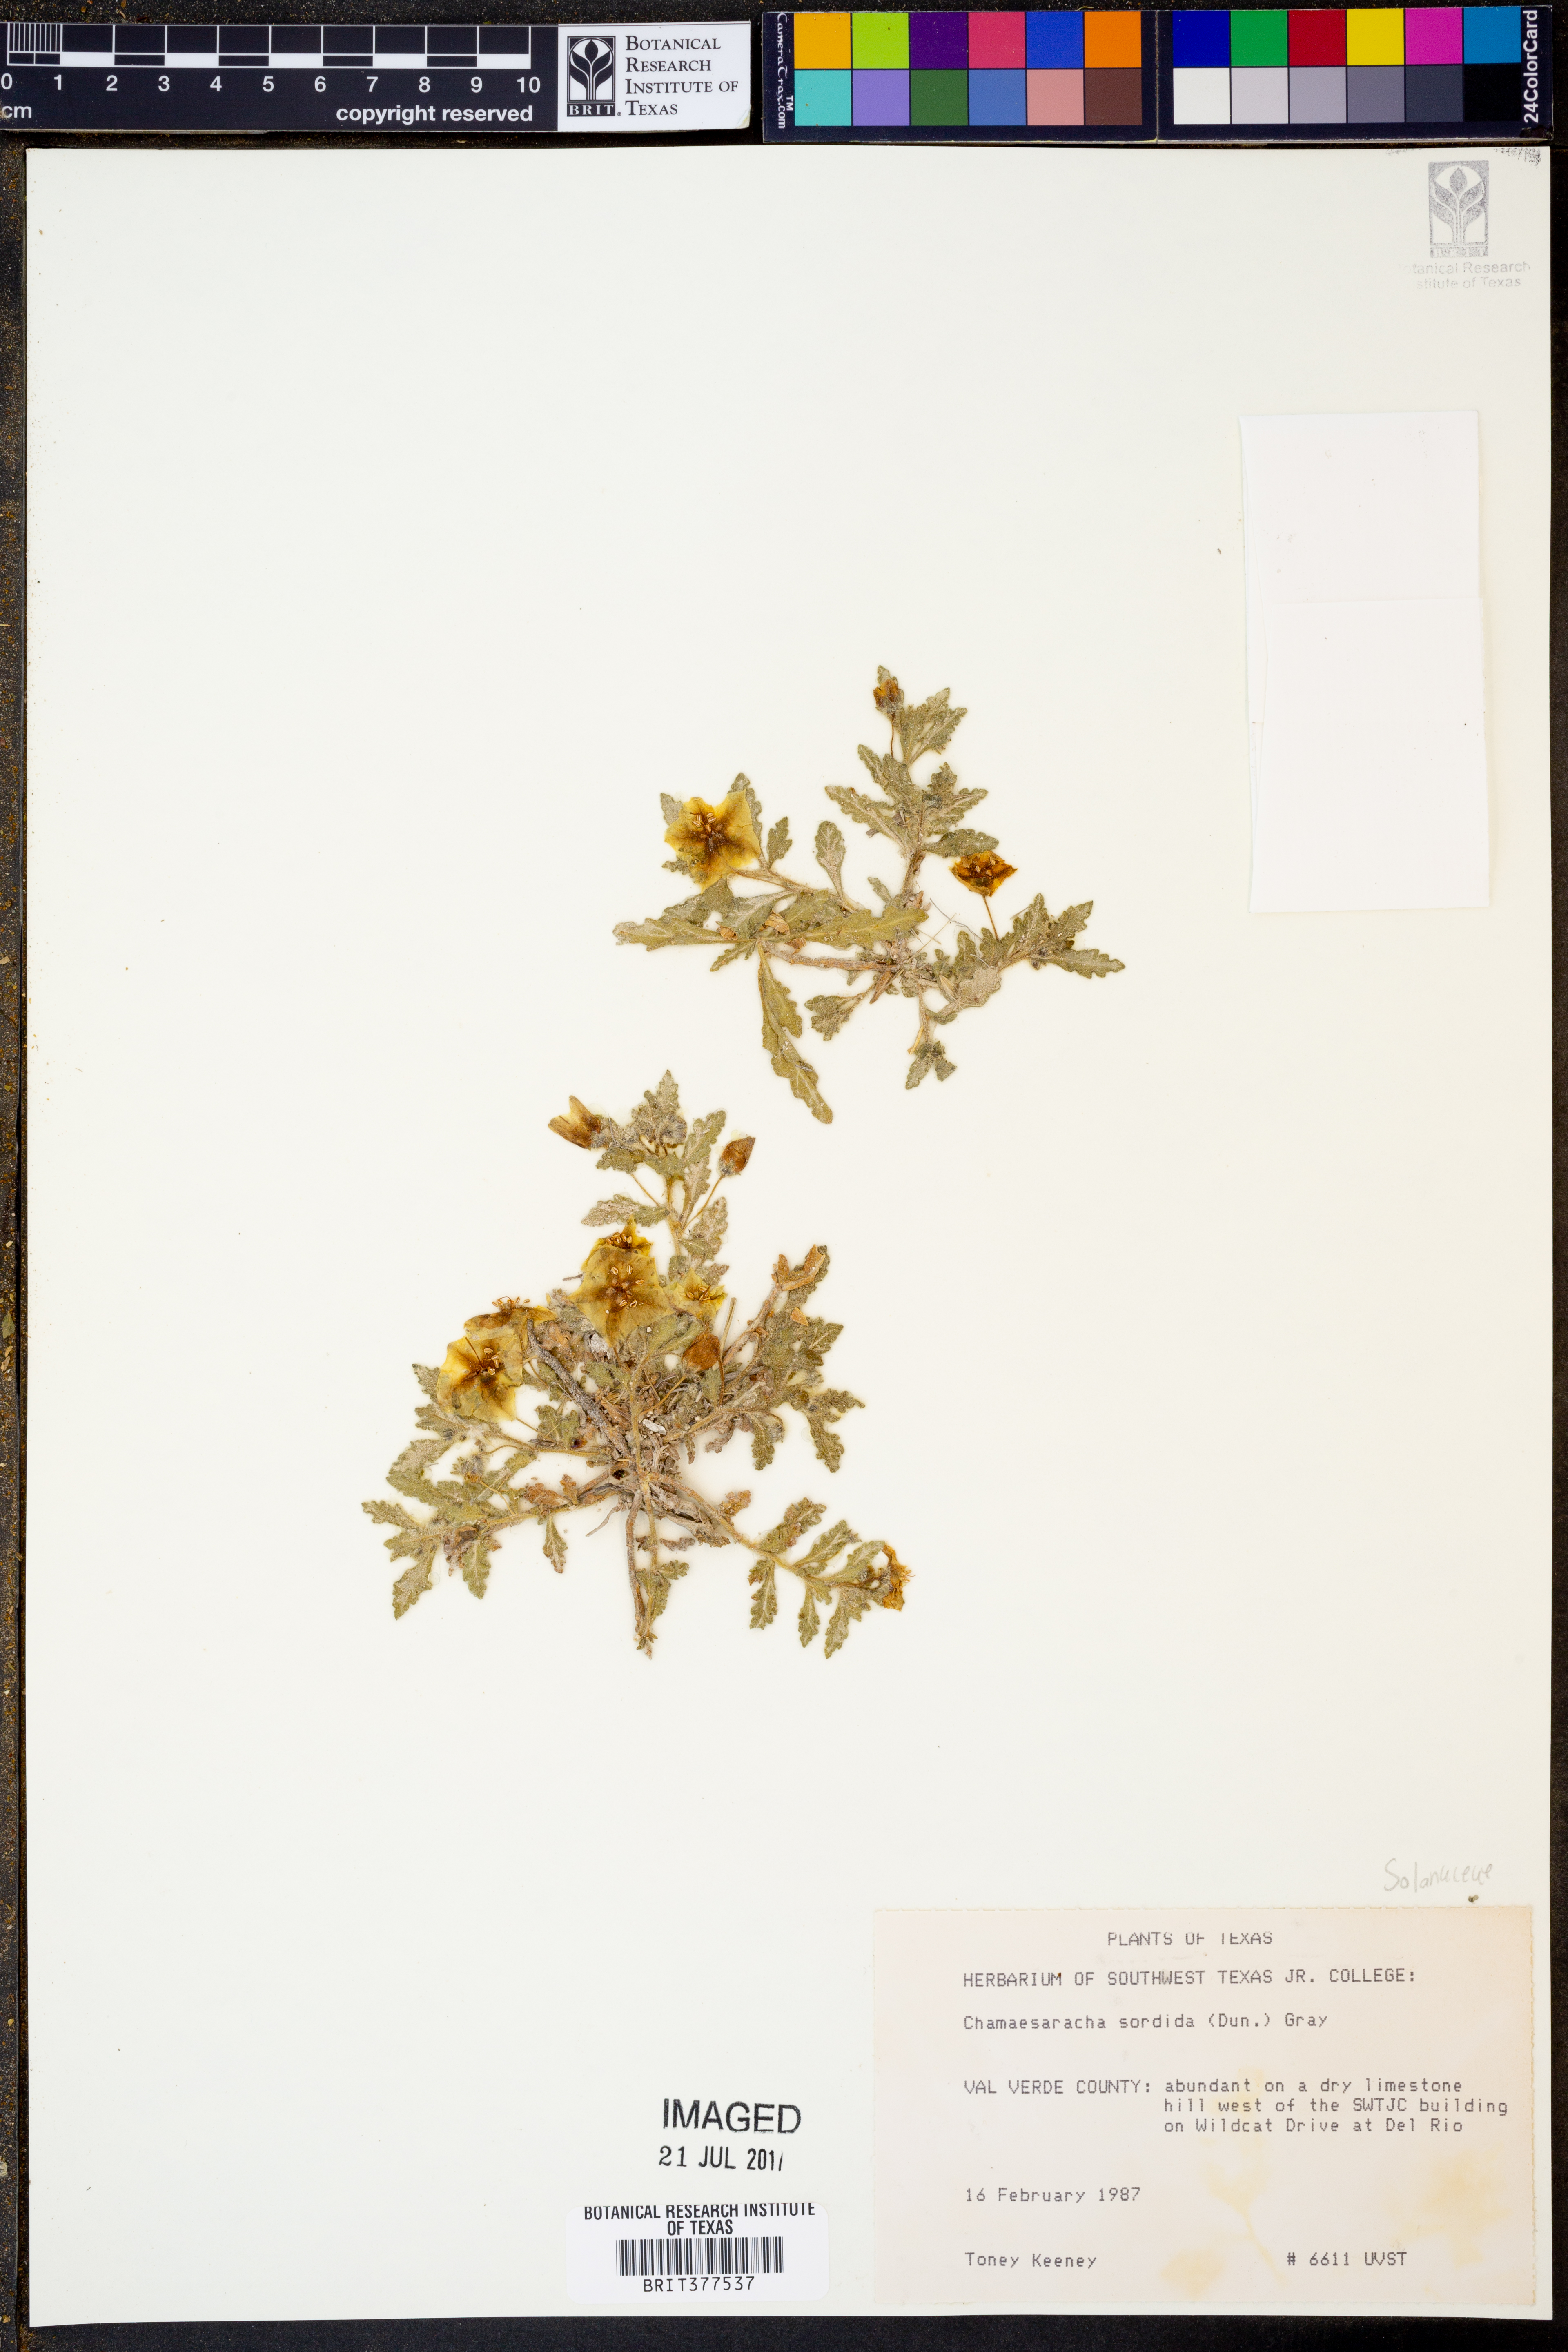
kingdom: Plantae
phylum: Tracheophyta
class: Magnoliopsida
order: Solanales
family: Solanaceae
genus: Chamaesaracha
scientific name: Chamaesaracha sordida
